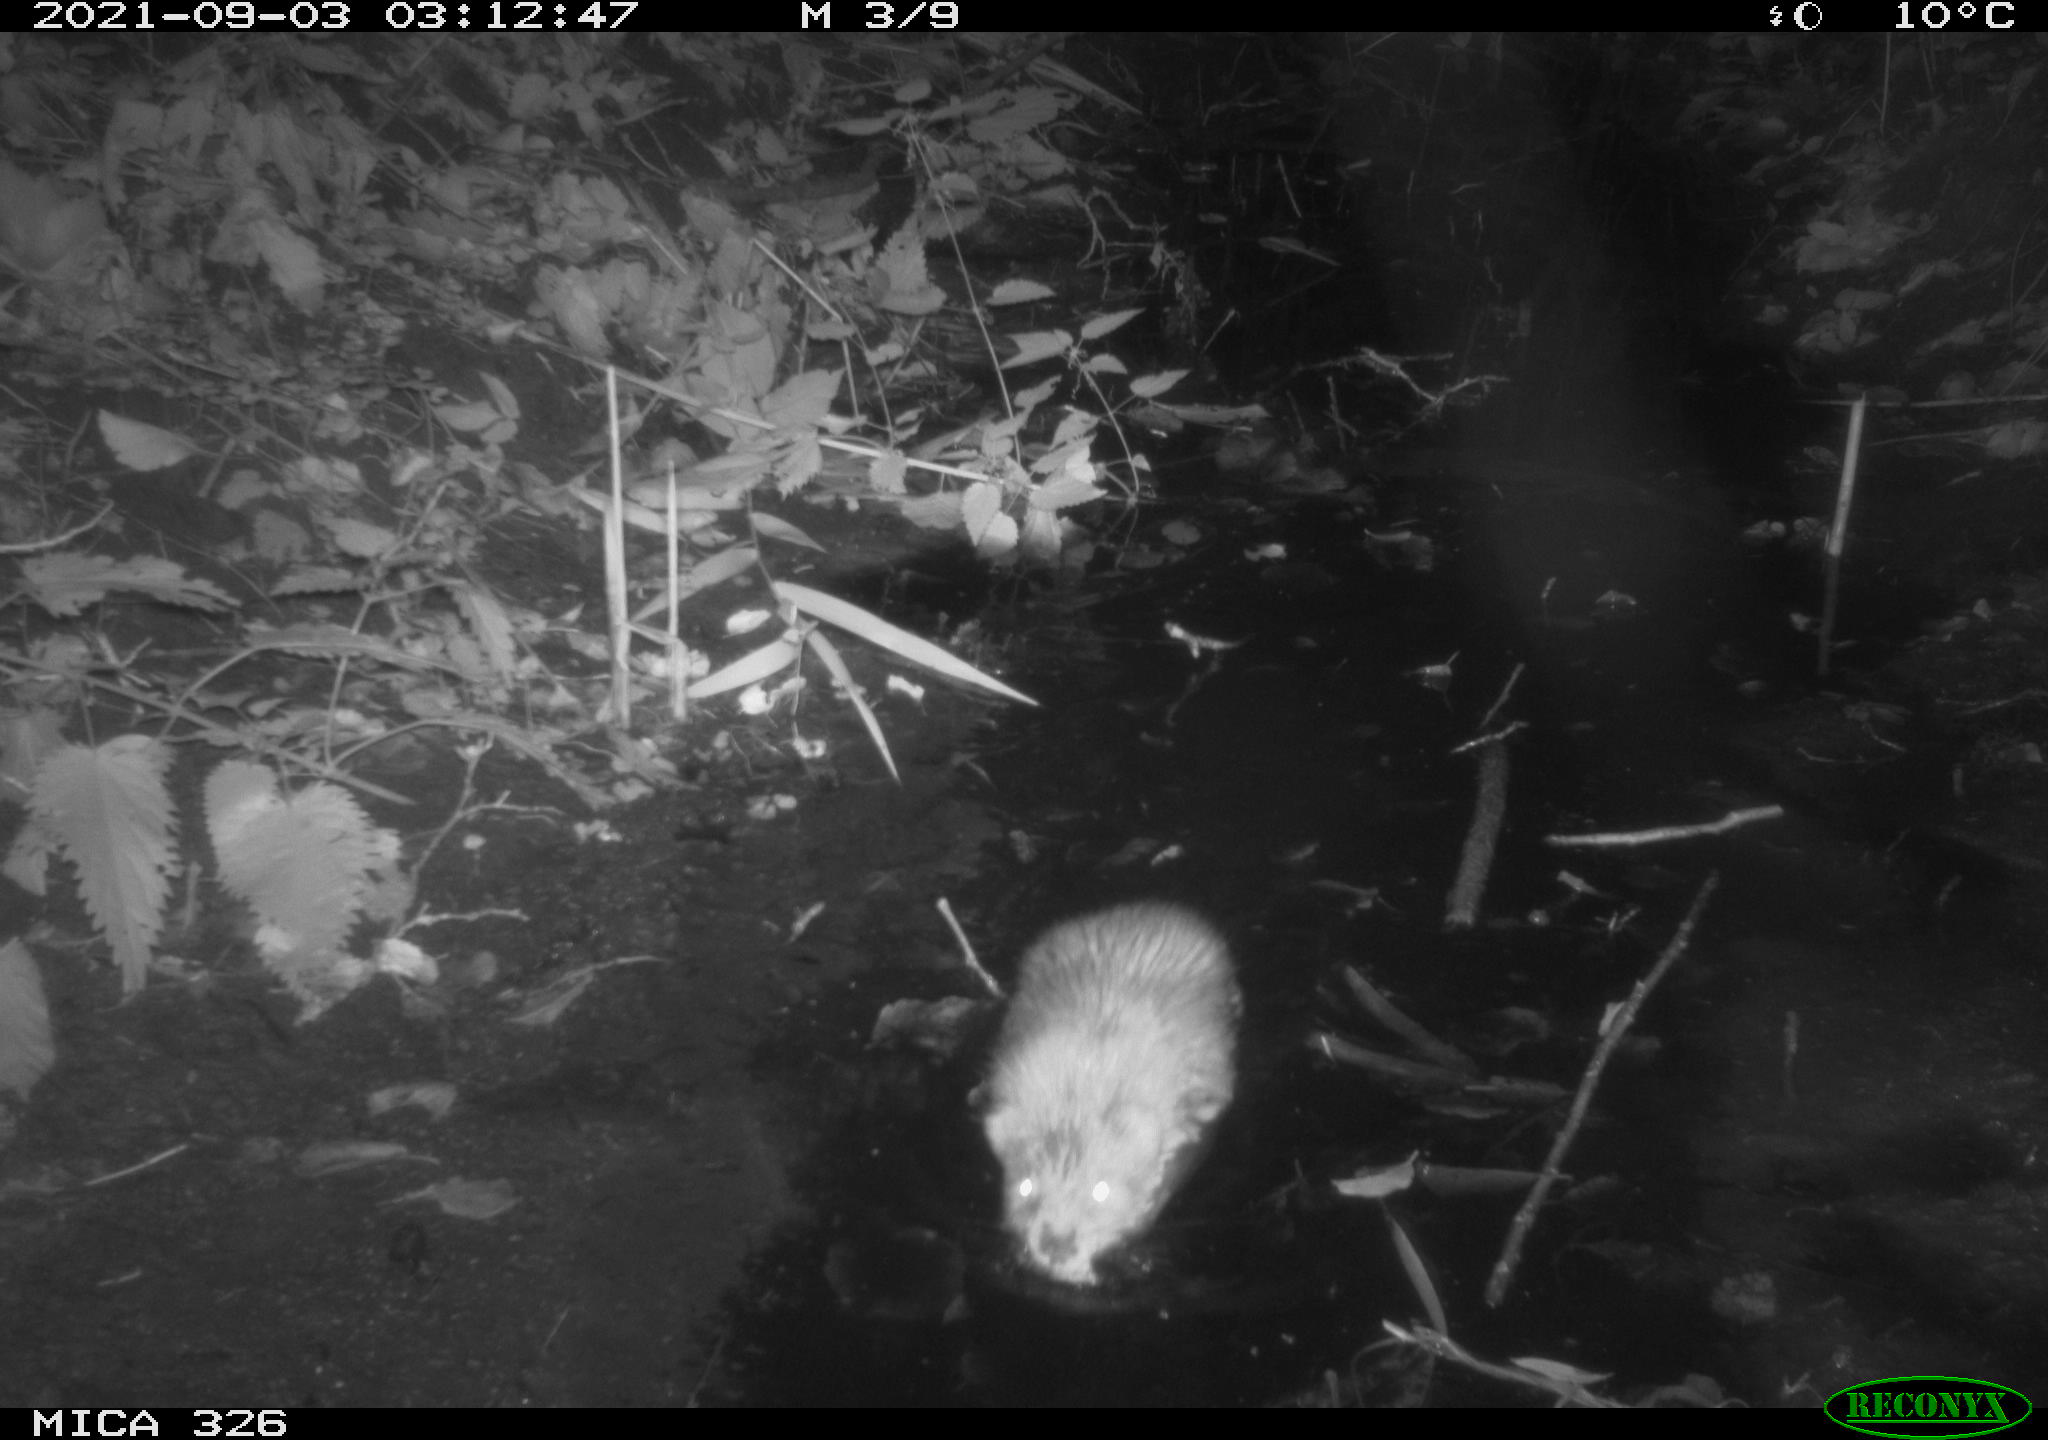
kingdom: Animalia
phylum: Chordata
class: Mammalia
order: Rodentia
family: Cricetidae
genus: Ondatra
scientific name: Ondatra zibethicus
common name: Muskrat
